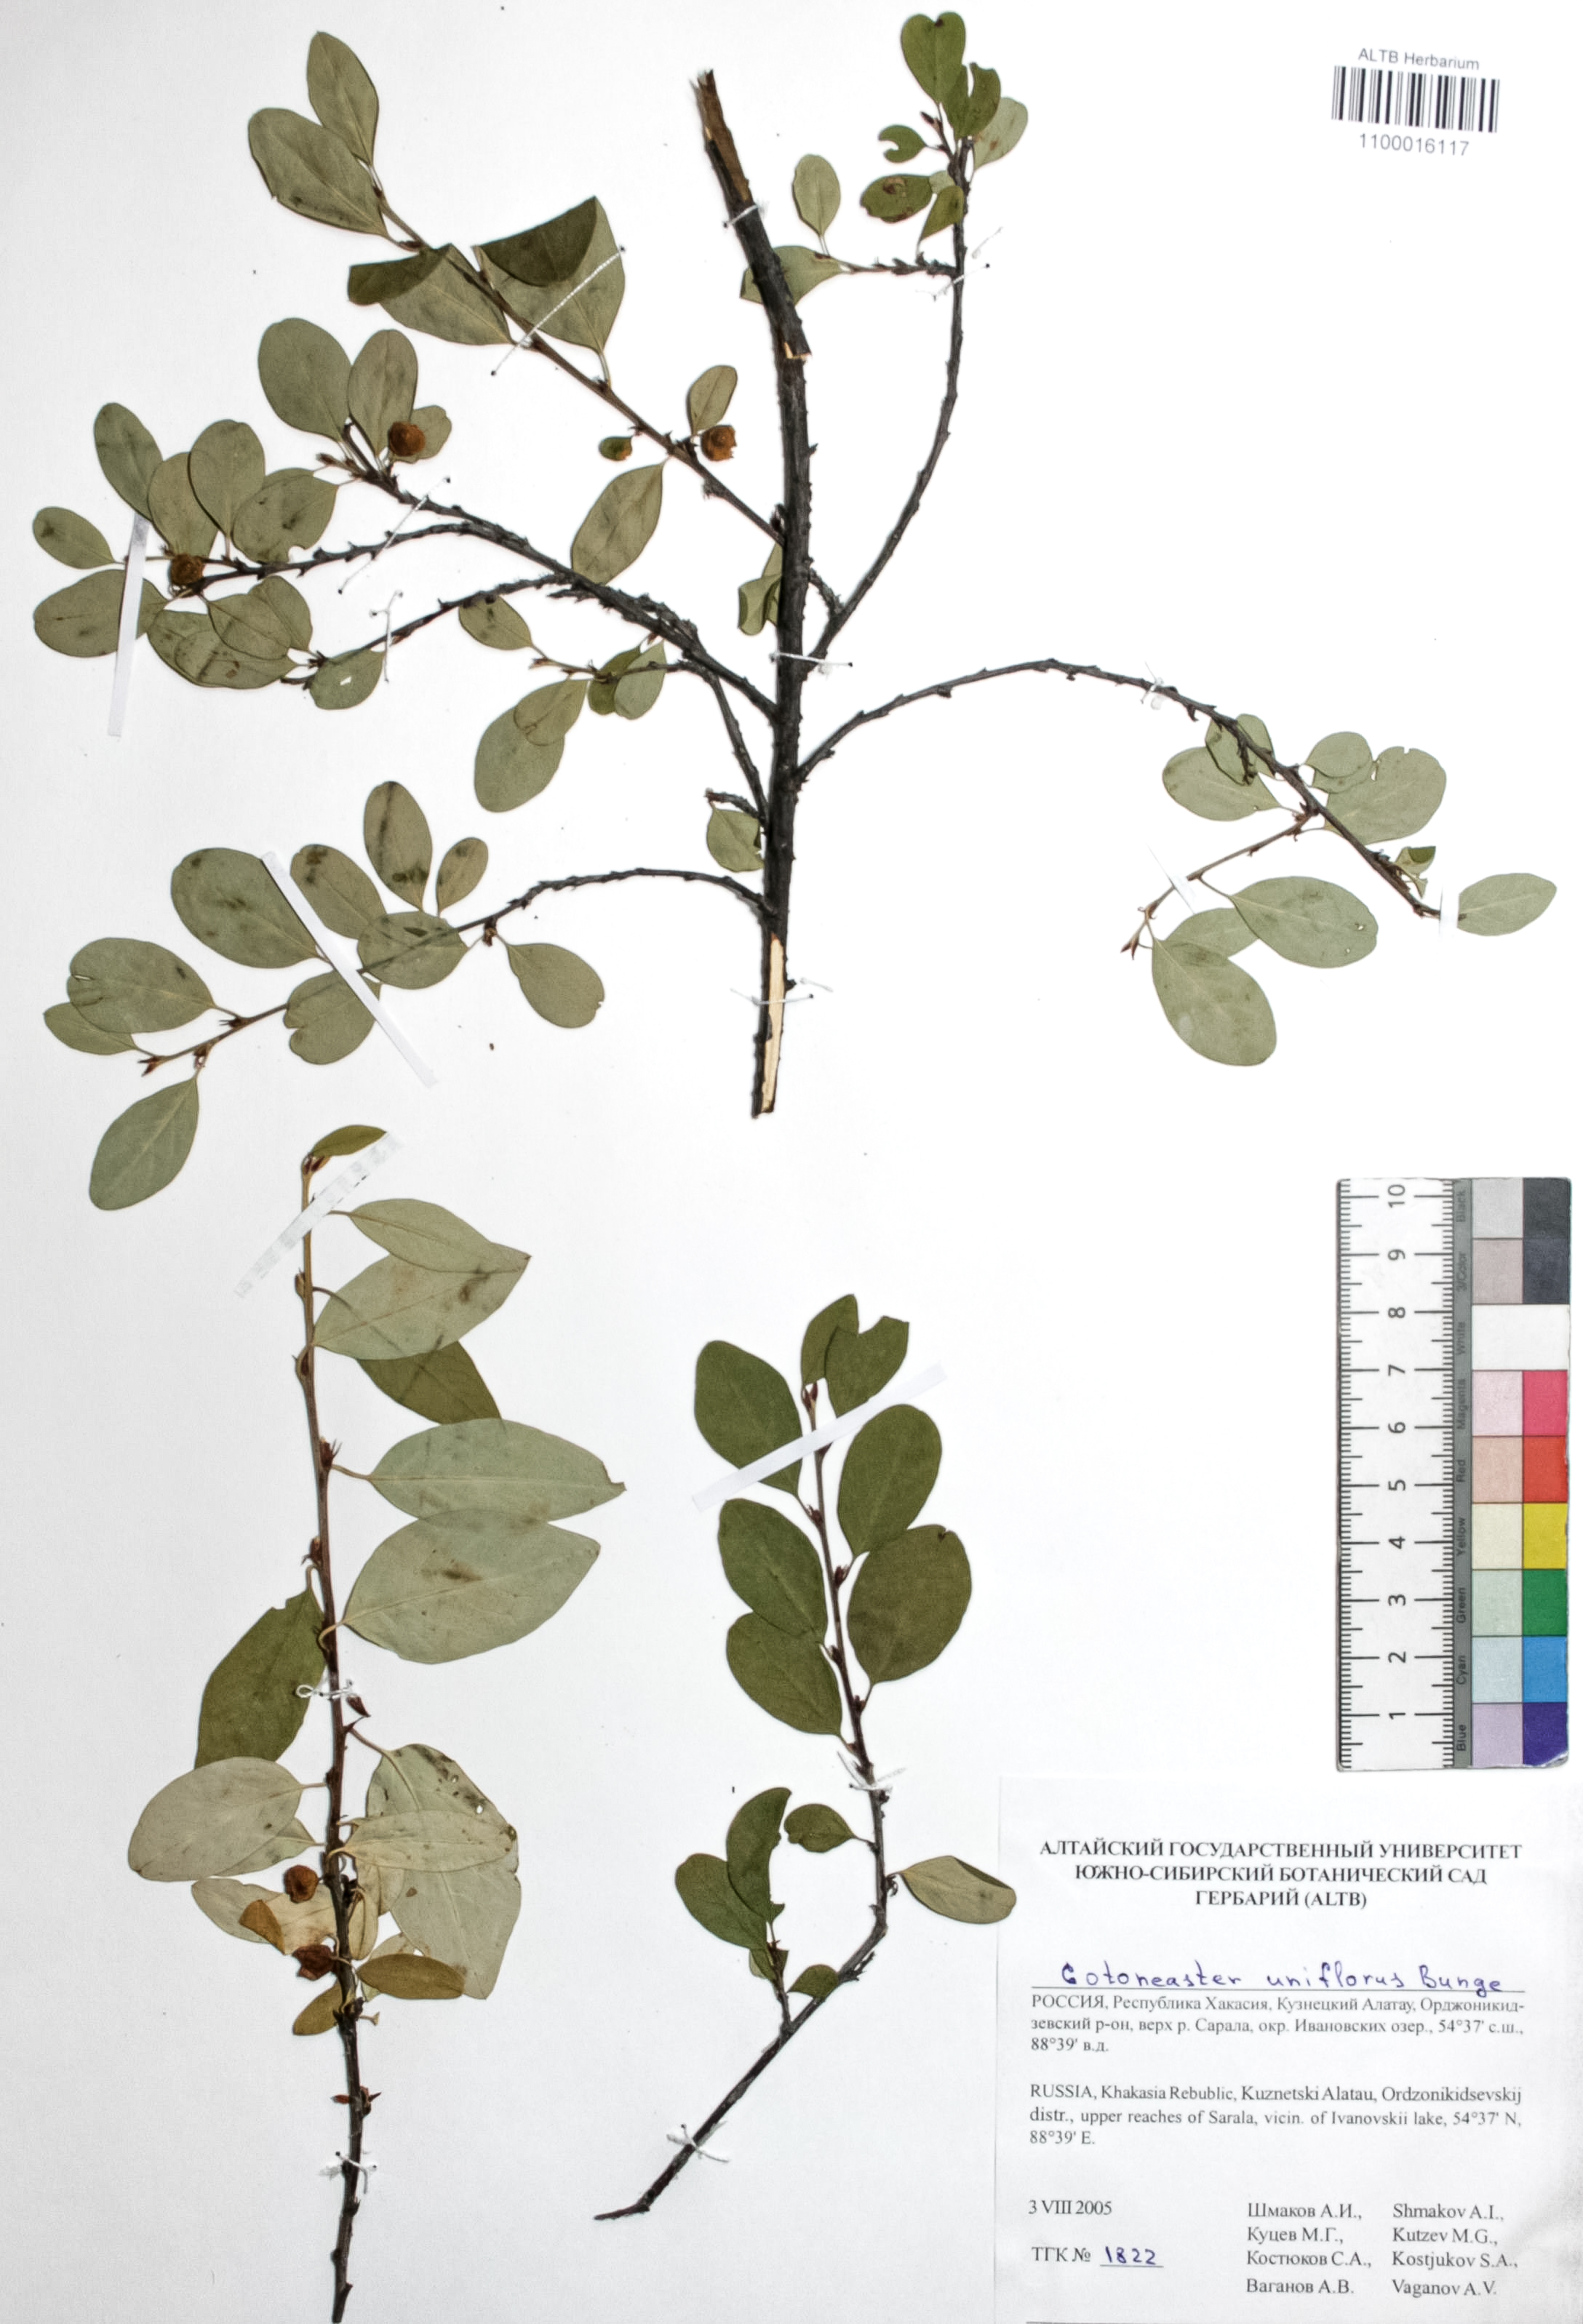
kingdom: Plantae
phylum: Tracheophyta
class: Magnoliopsida
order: Rosales
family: Rosaceae
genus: Cotoneaster
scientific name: Cotoneaster uniflorus
